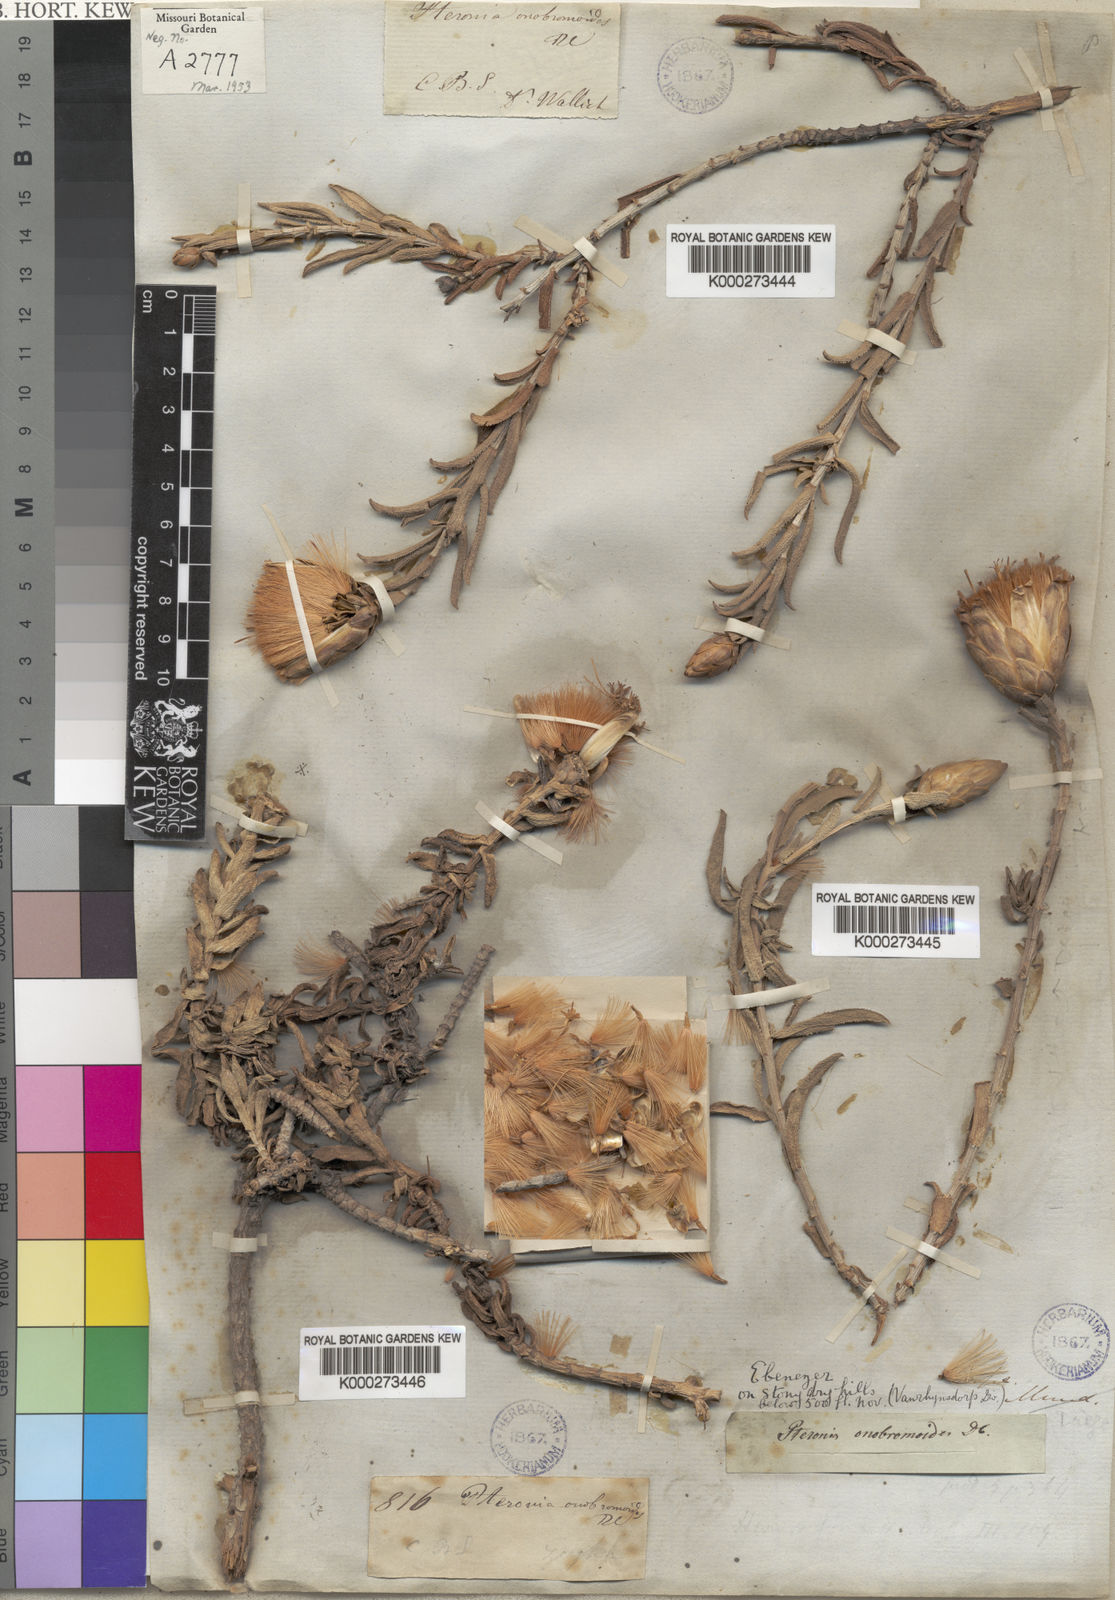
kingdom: Plantae
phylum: Tracheophyta
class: Magnoliopsida
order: Asterales
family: Asteraceae
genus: Pteronia
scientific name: Pteronia onobromoides
